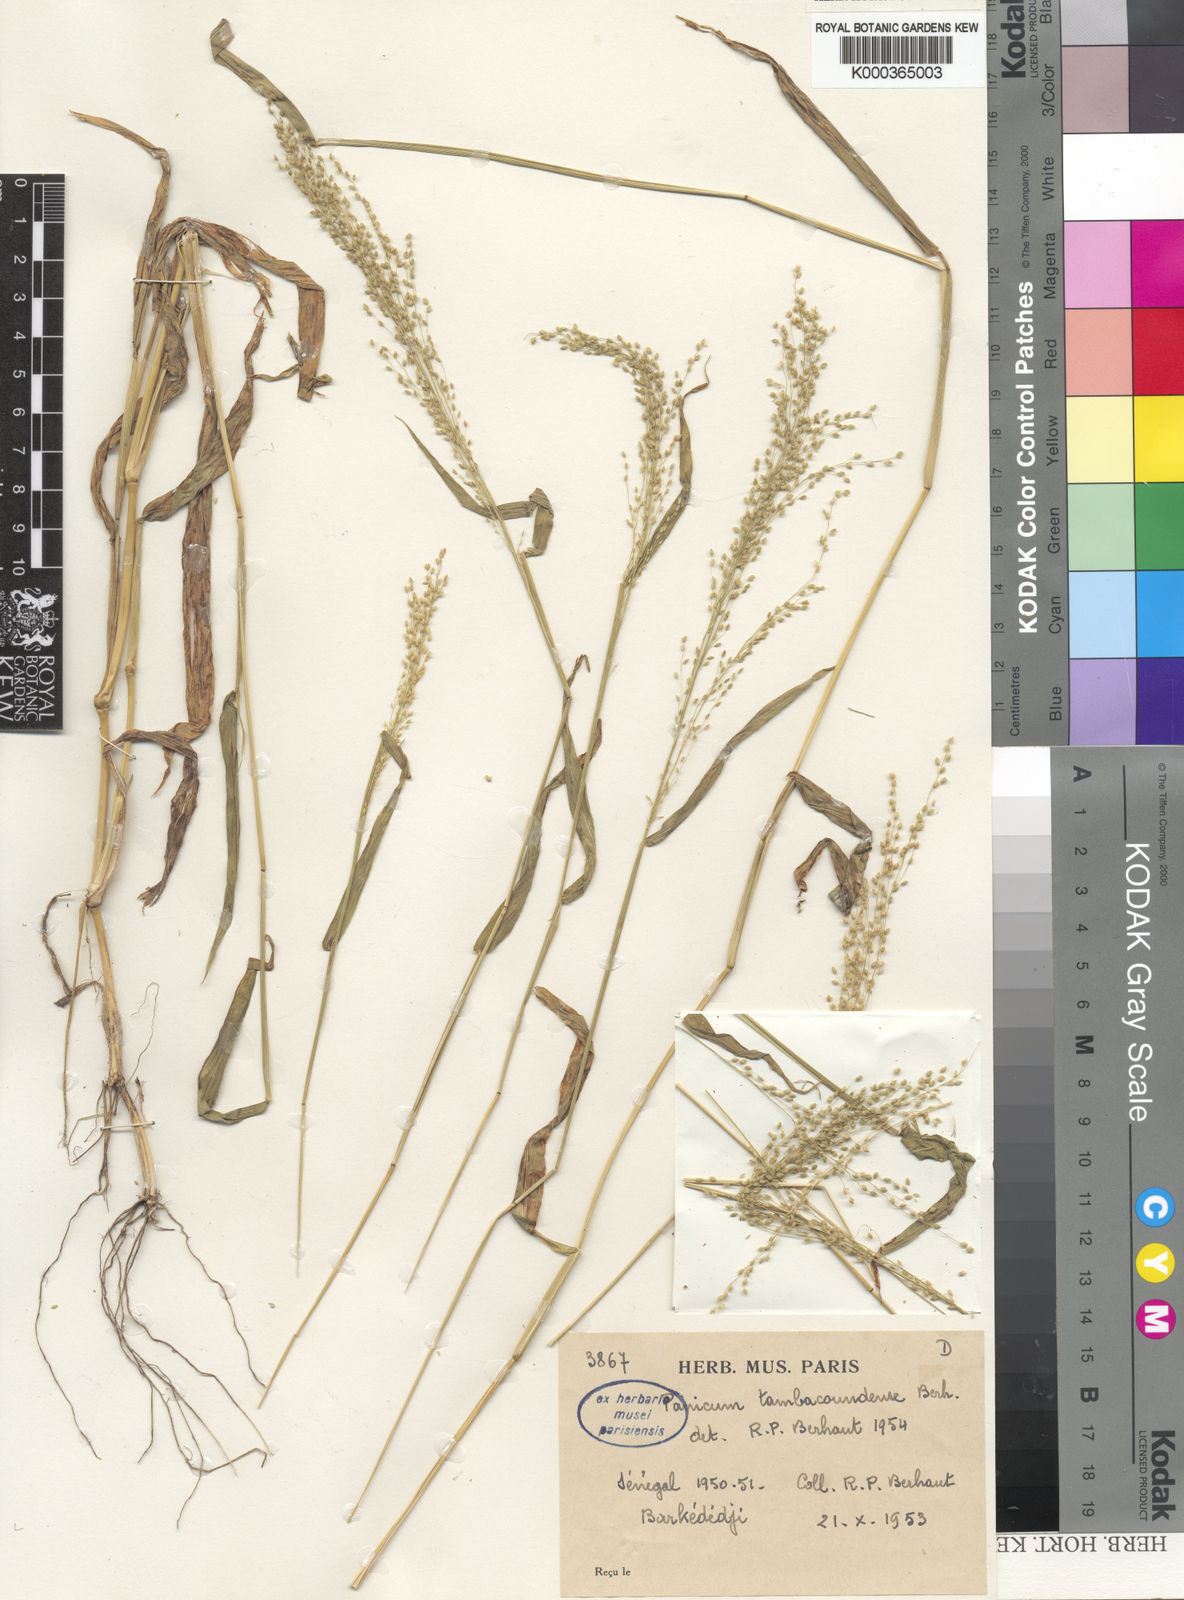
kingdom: Plantae
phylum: Tracheophyta
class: Liliopsida
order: Poales
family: Poaceae
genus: Trichanthecium
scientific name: Trichanthecium gracilicaule
